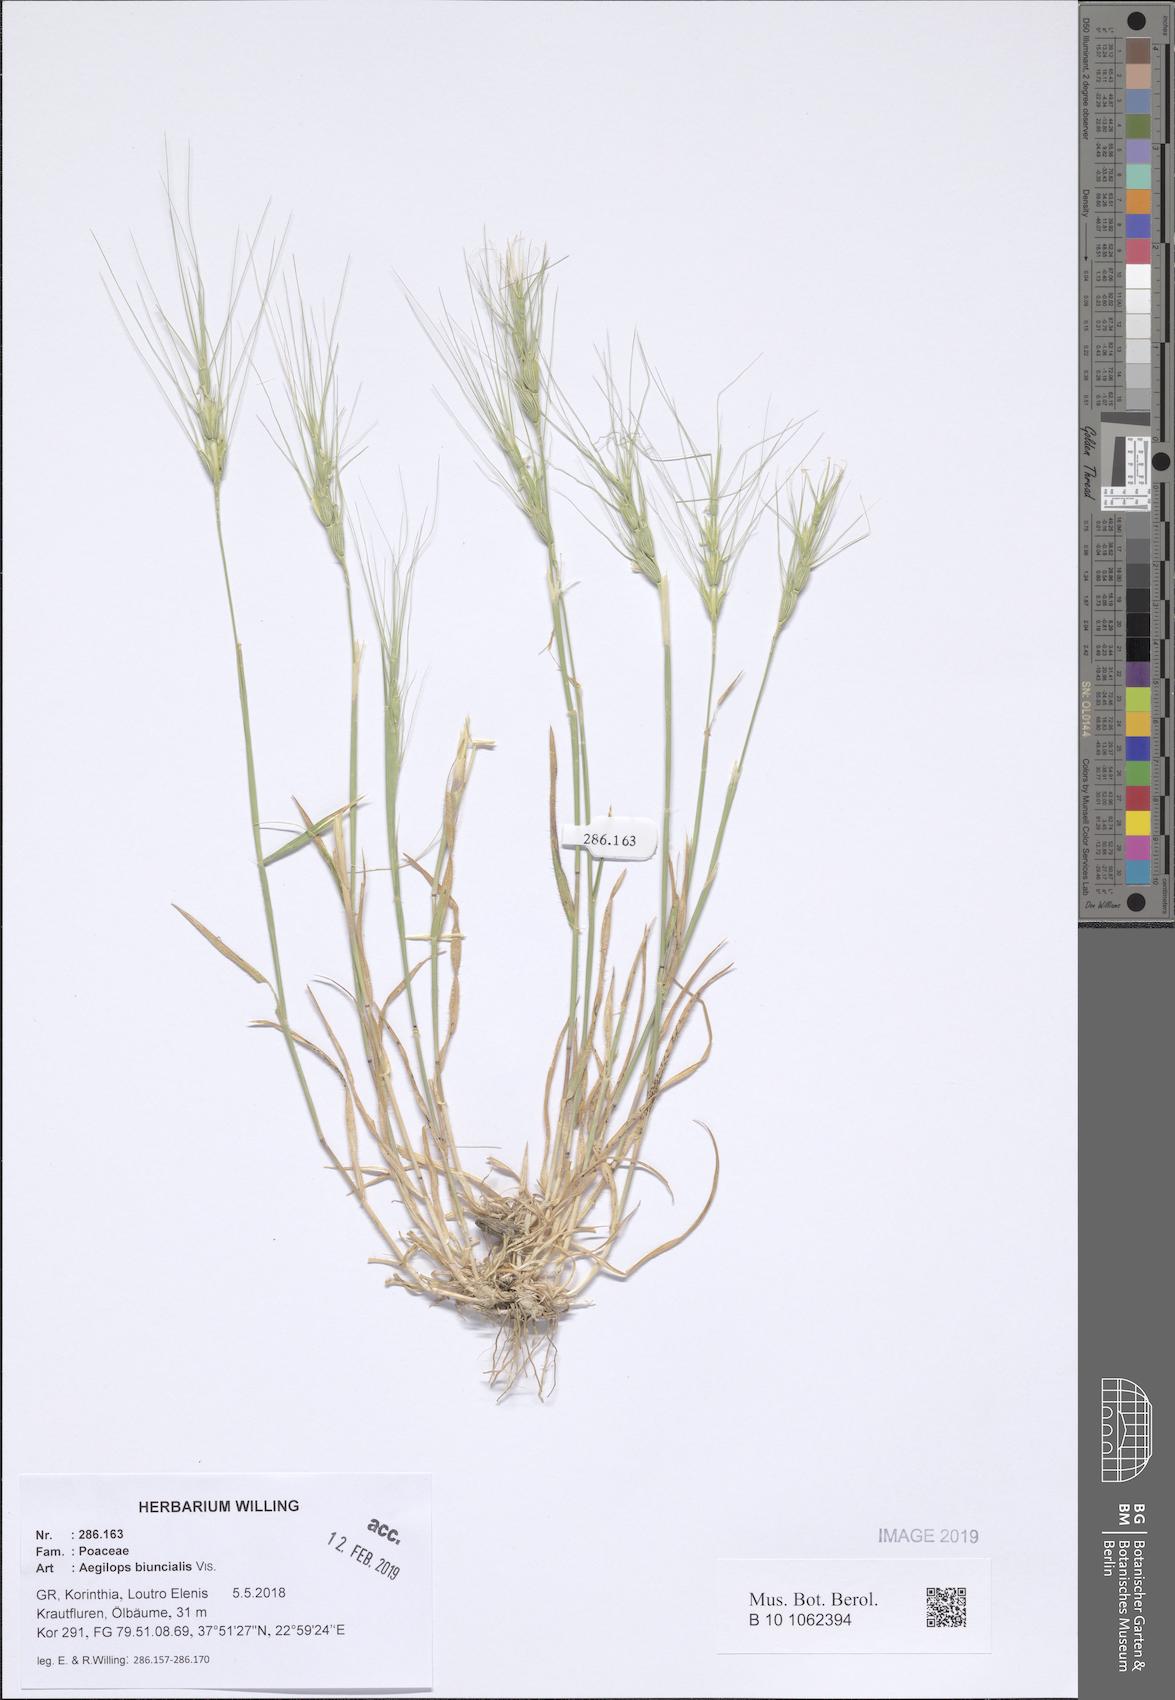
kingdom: Plantae
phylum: Tracheophyta
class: Liliopsida
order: Poales
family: Poaceae
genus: Aegilops
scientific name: Aegilops biuncialis
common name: Mediterranean aegilops
